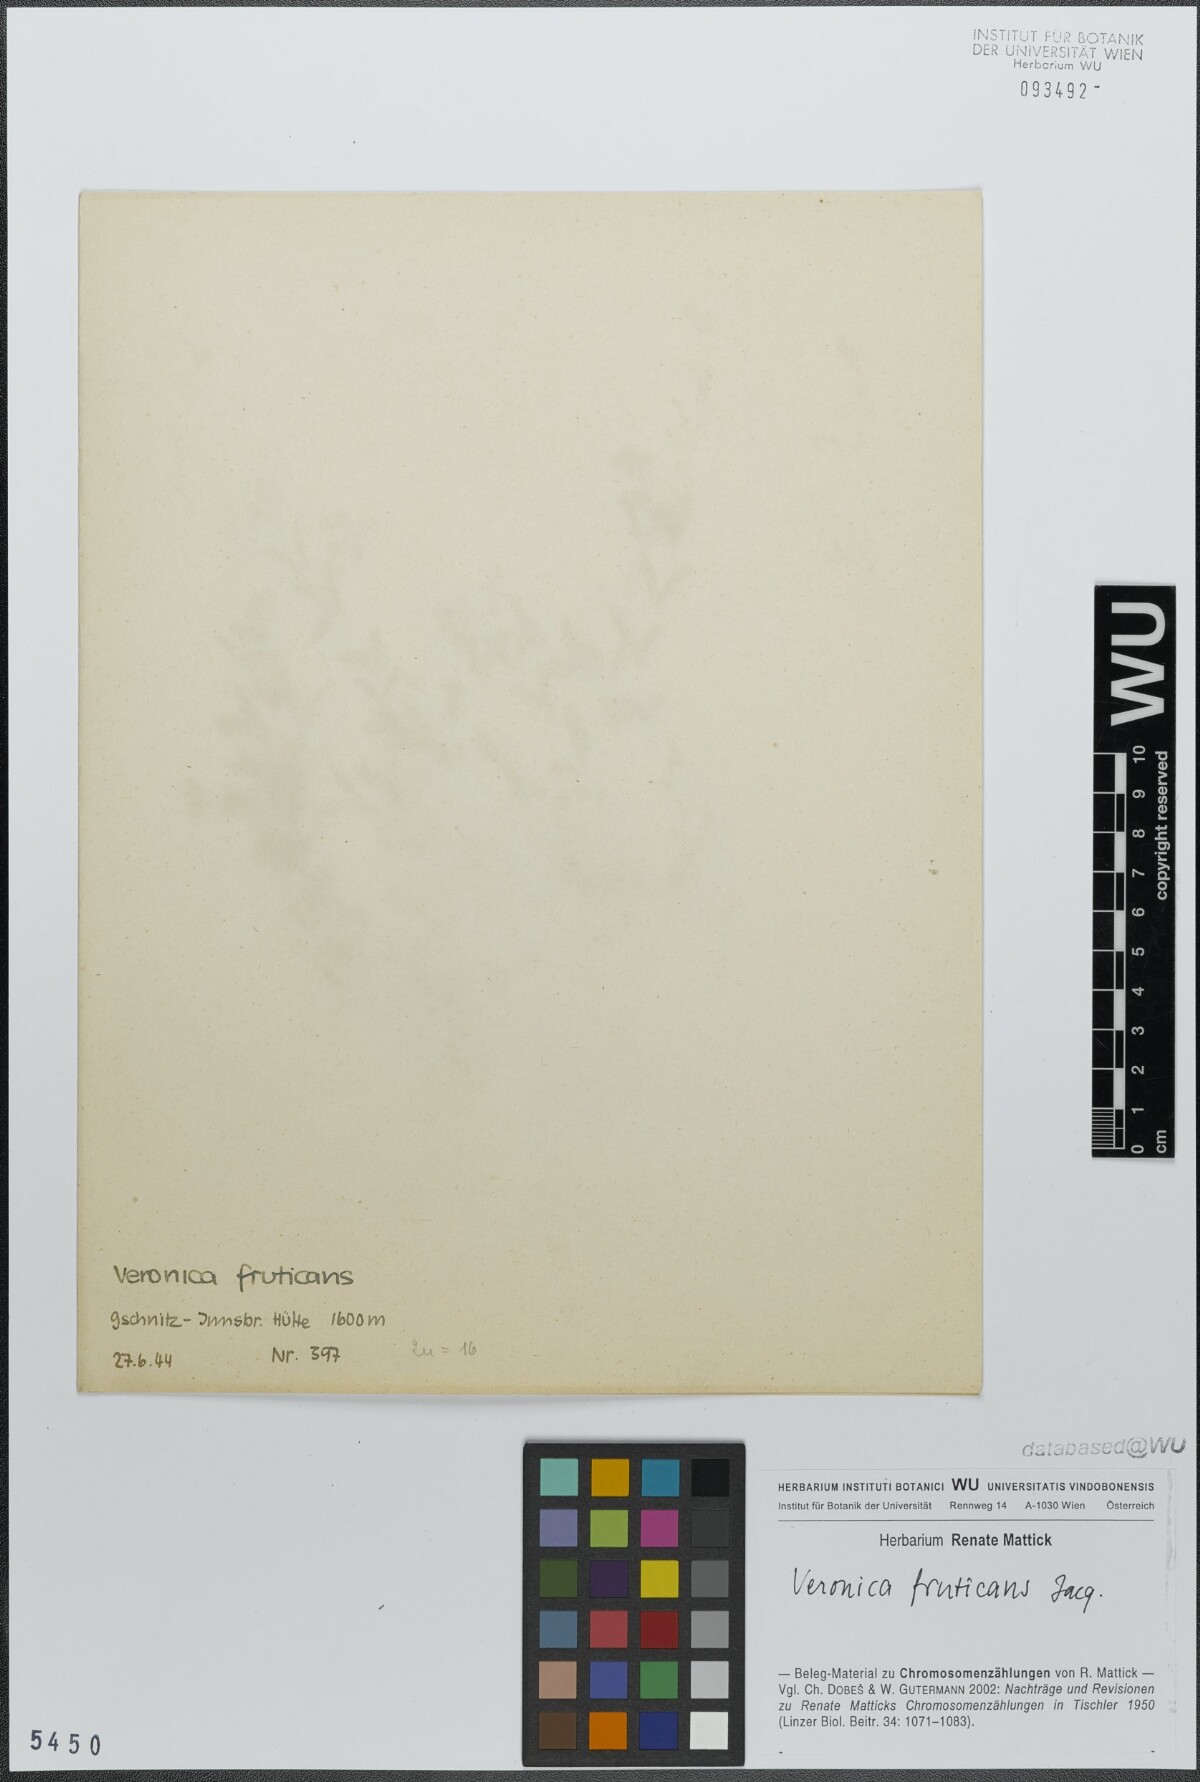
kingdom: Plantae
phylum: Tracheophyta
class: Magnoliopsida
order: Lamiales
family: Plantaginaceae
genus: Veronica
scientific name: Veronica fruticans
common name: Rock speedwell
